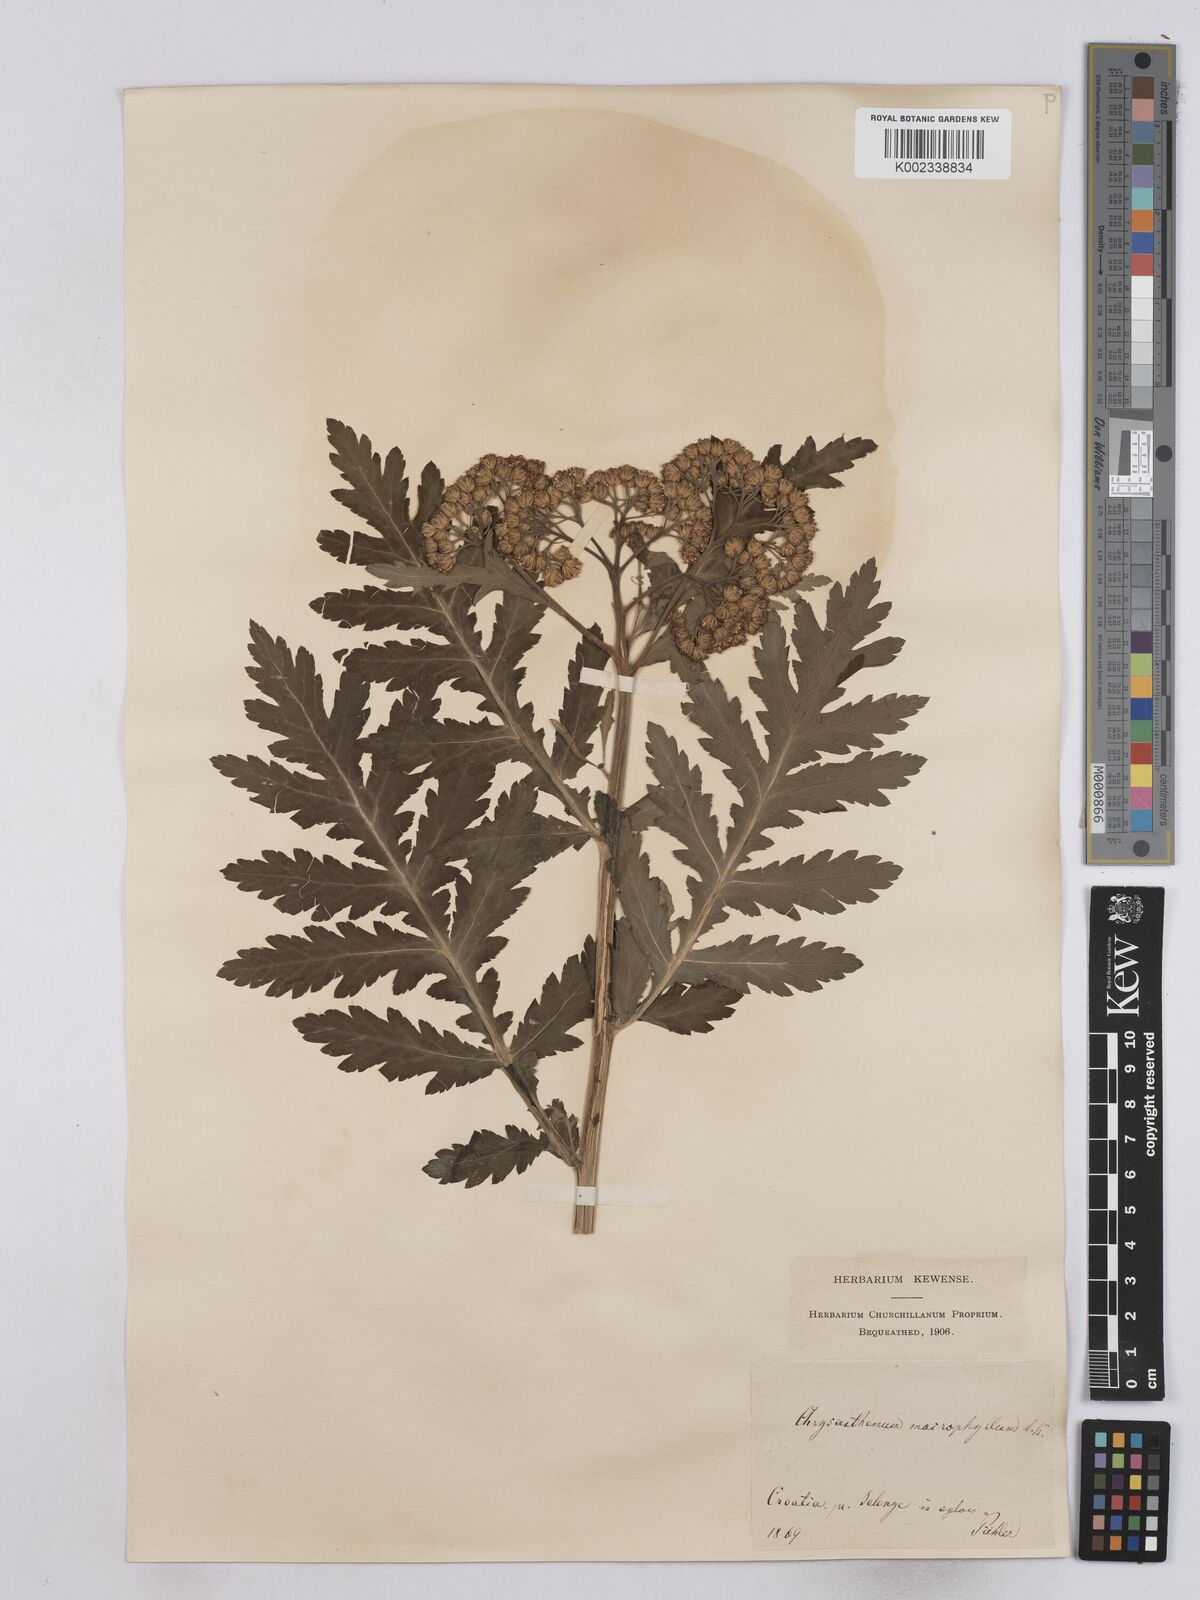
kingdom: Plantae
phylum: Tracheophyta
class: Magnoliopsida
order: Asterales
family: Asteraceae
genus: Tanacetum
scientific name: Tanacetum macrophyllum
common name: Rayed tansy
